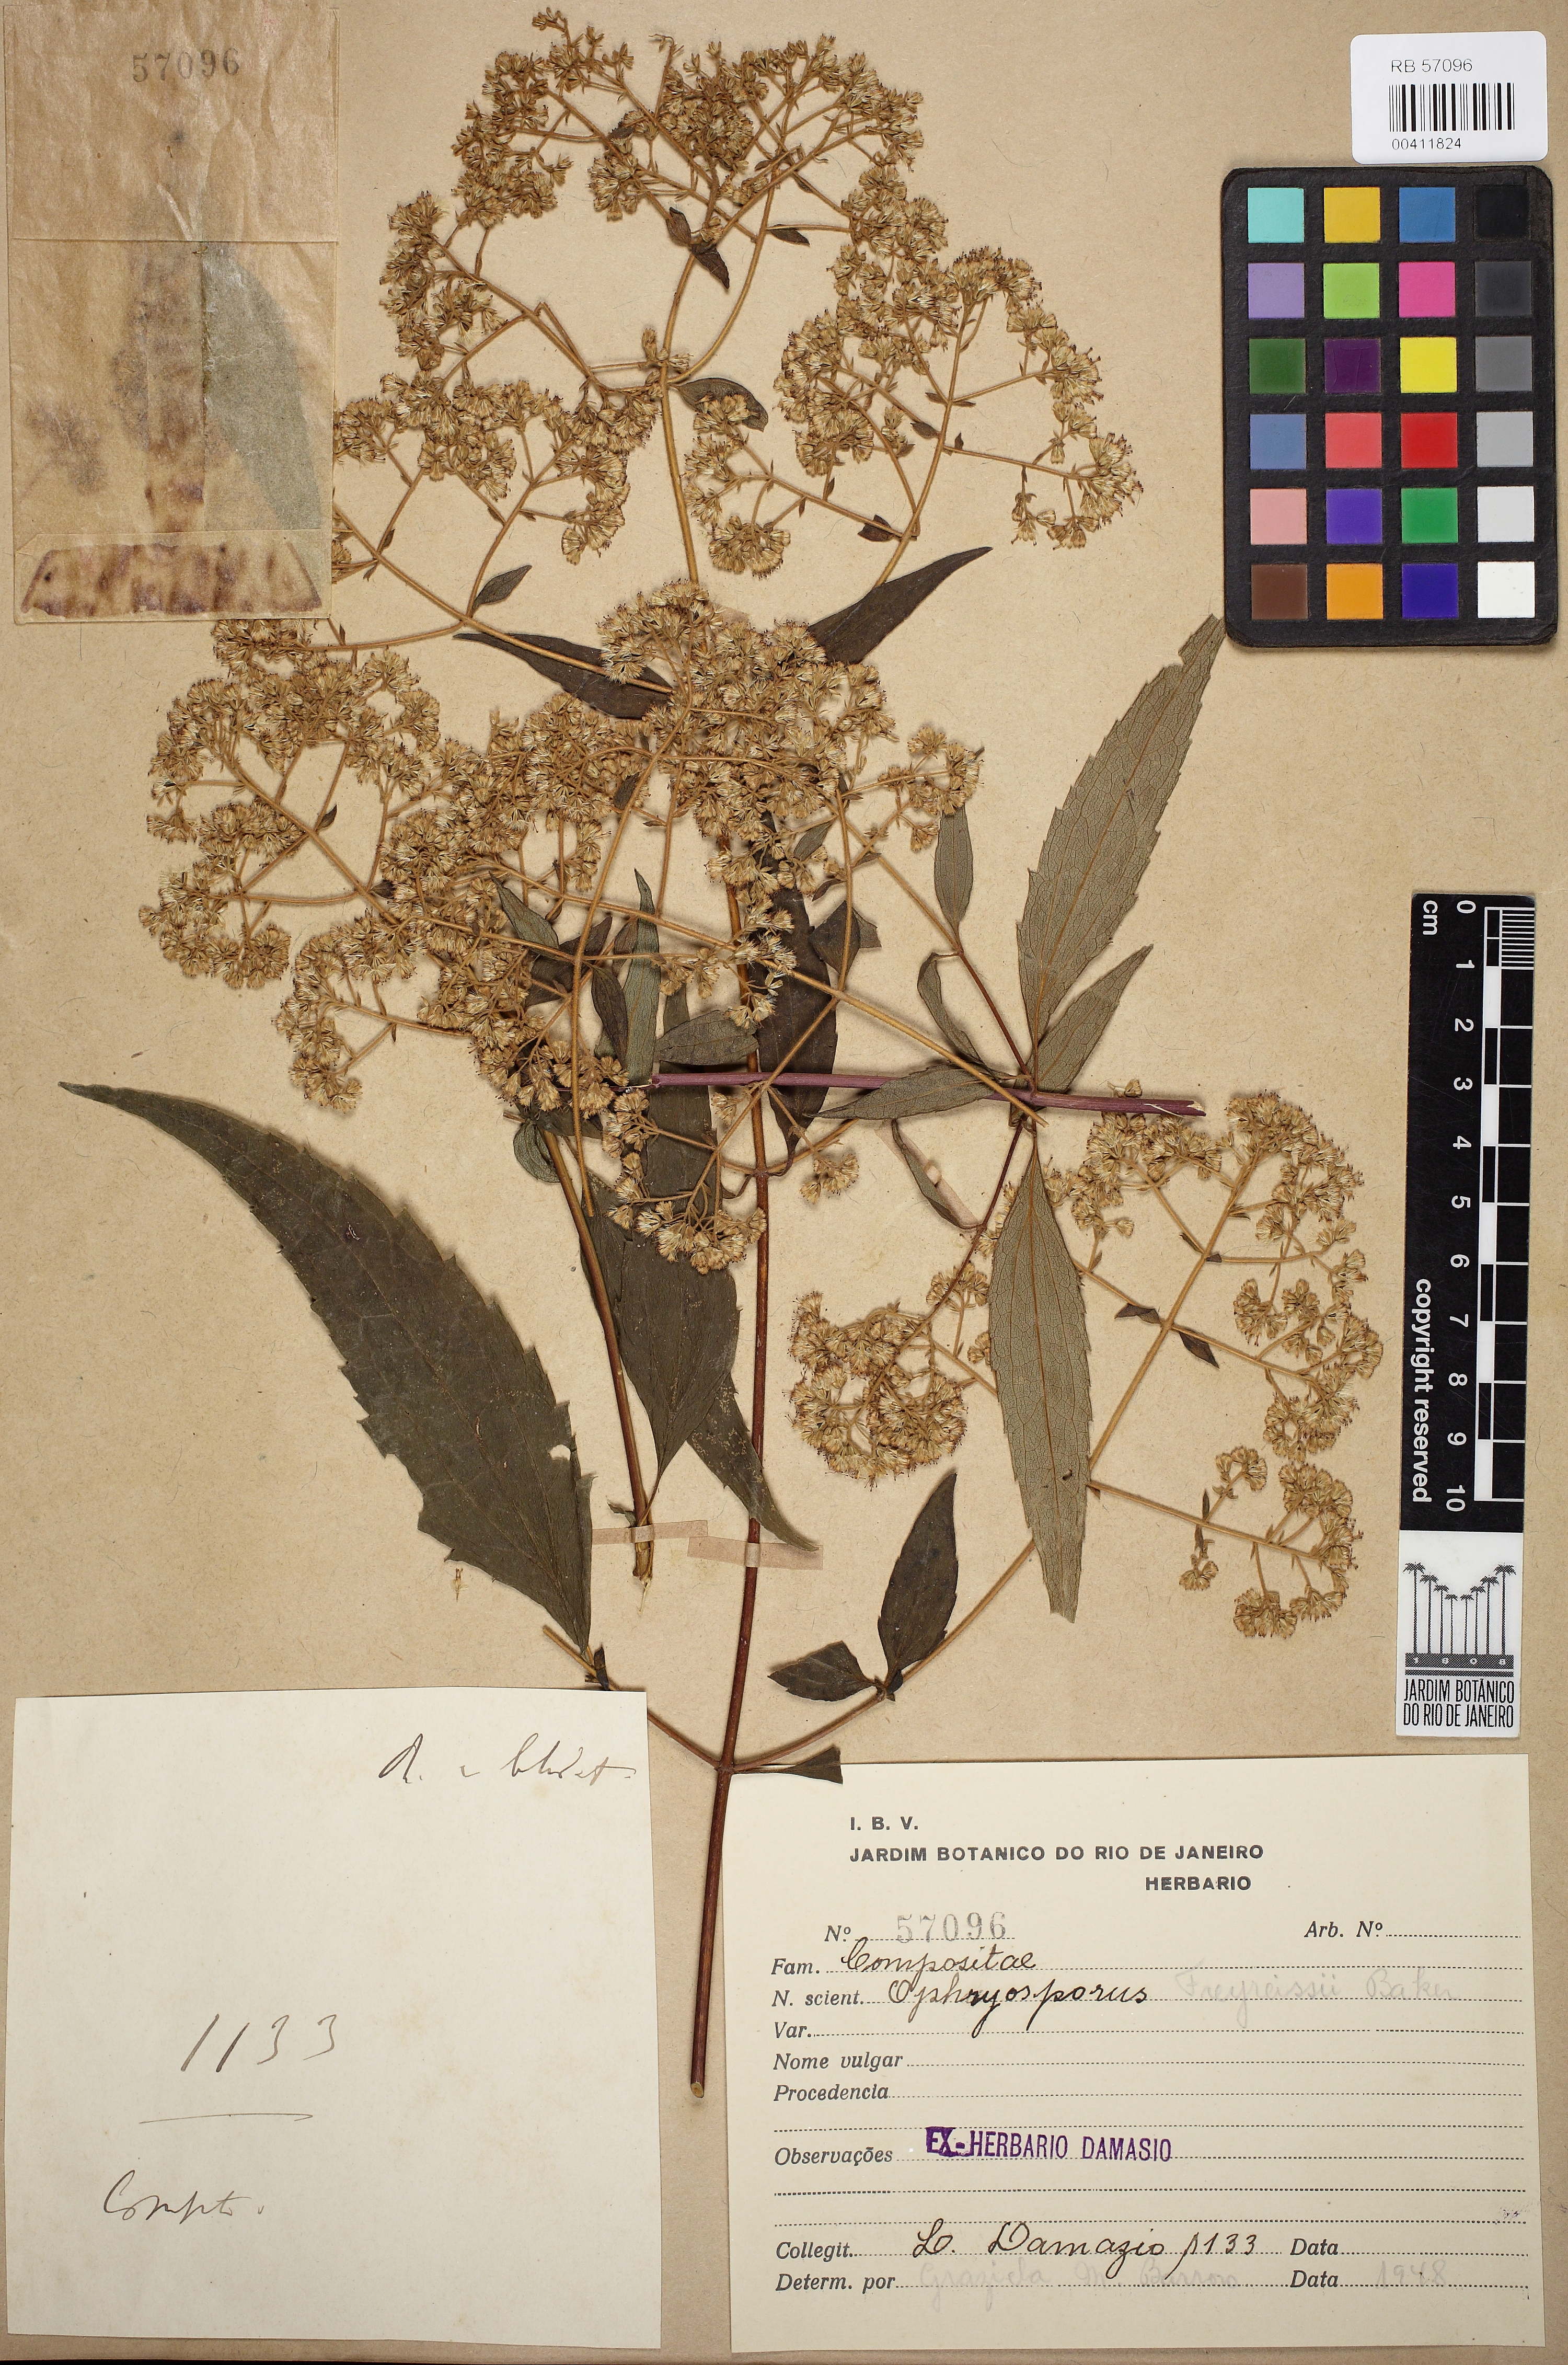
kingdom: Plantae
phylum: Tracheophyta
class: Magnoliopsida
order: Asterales
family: Asteraceae
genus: Ophryosporus
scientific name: Ophryosporus freyreysi
